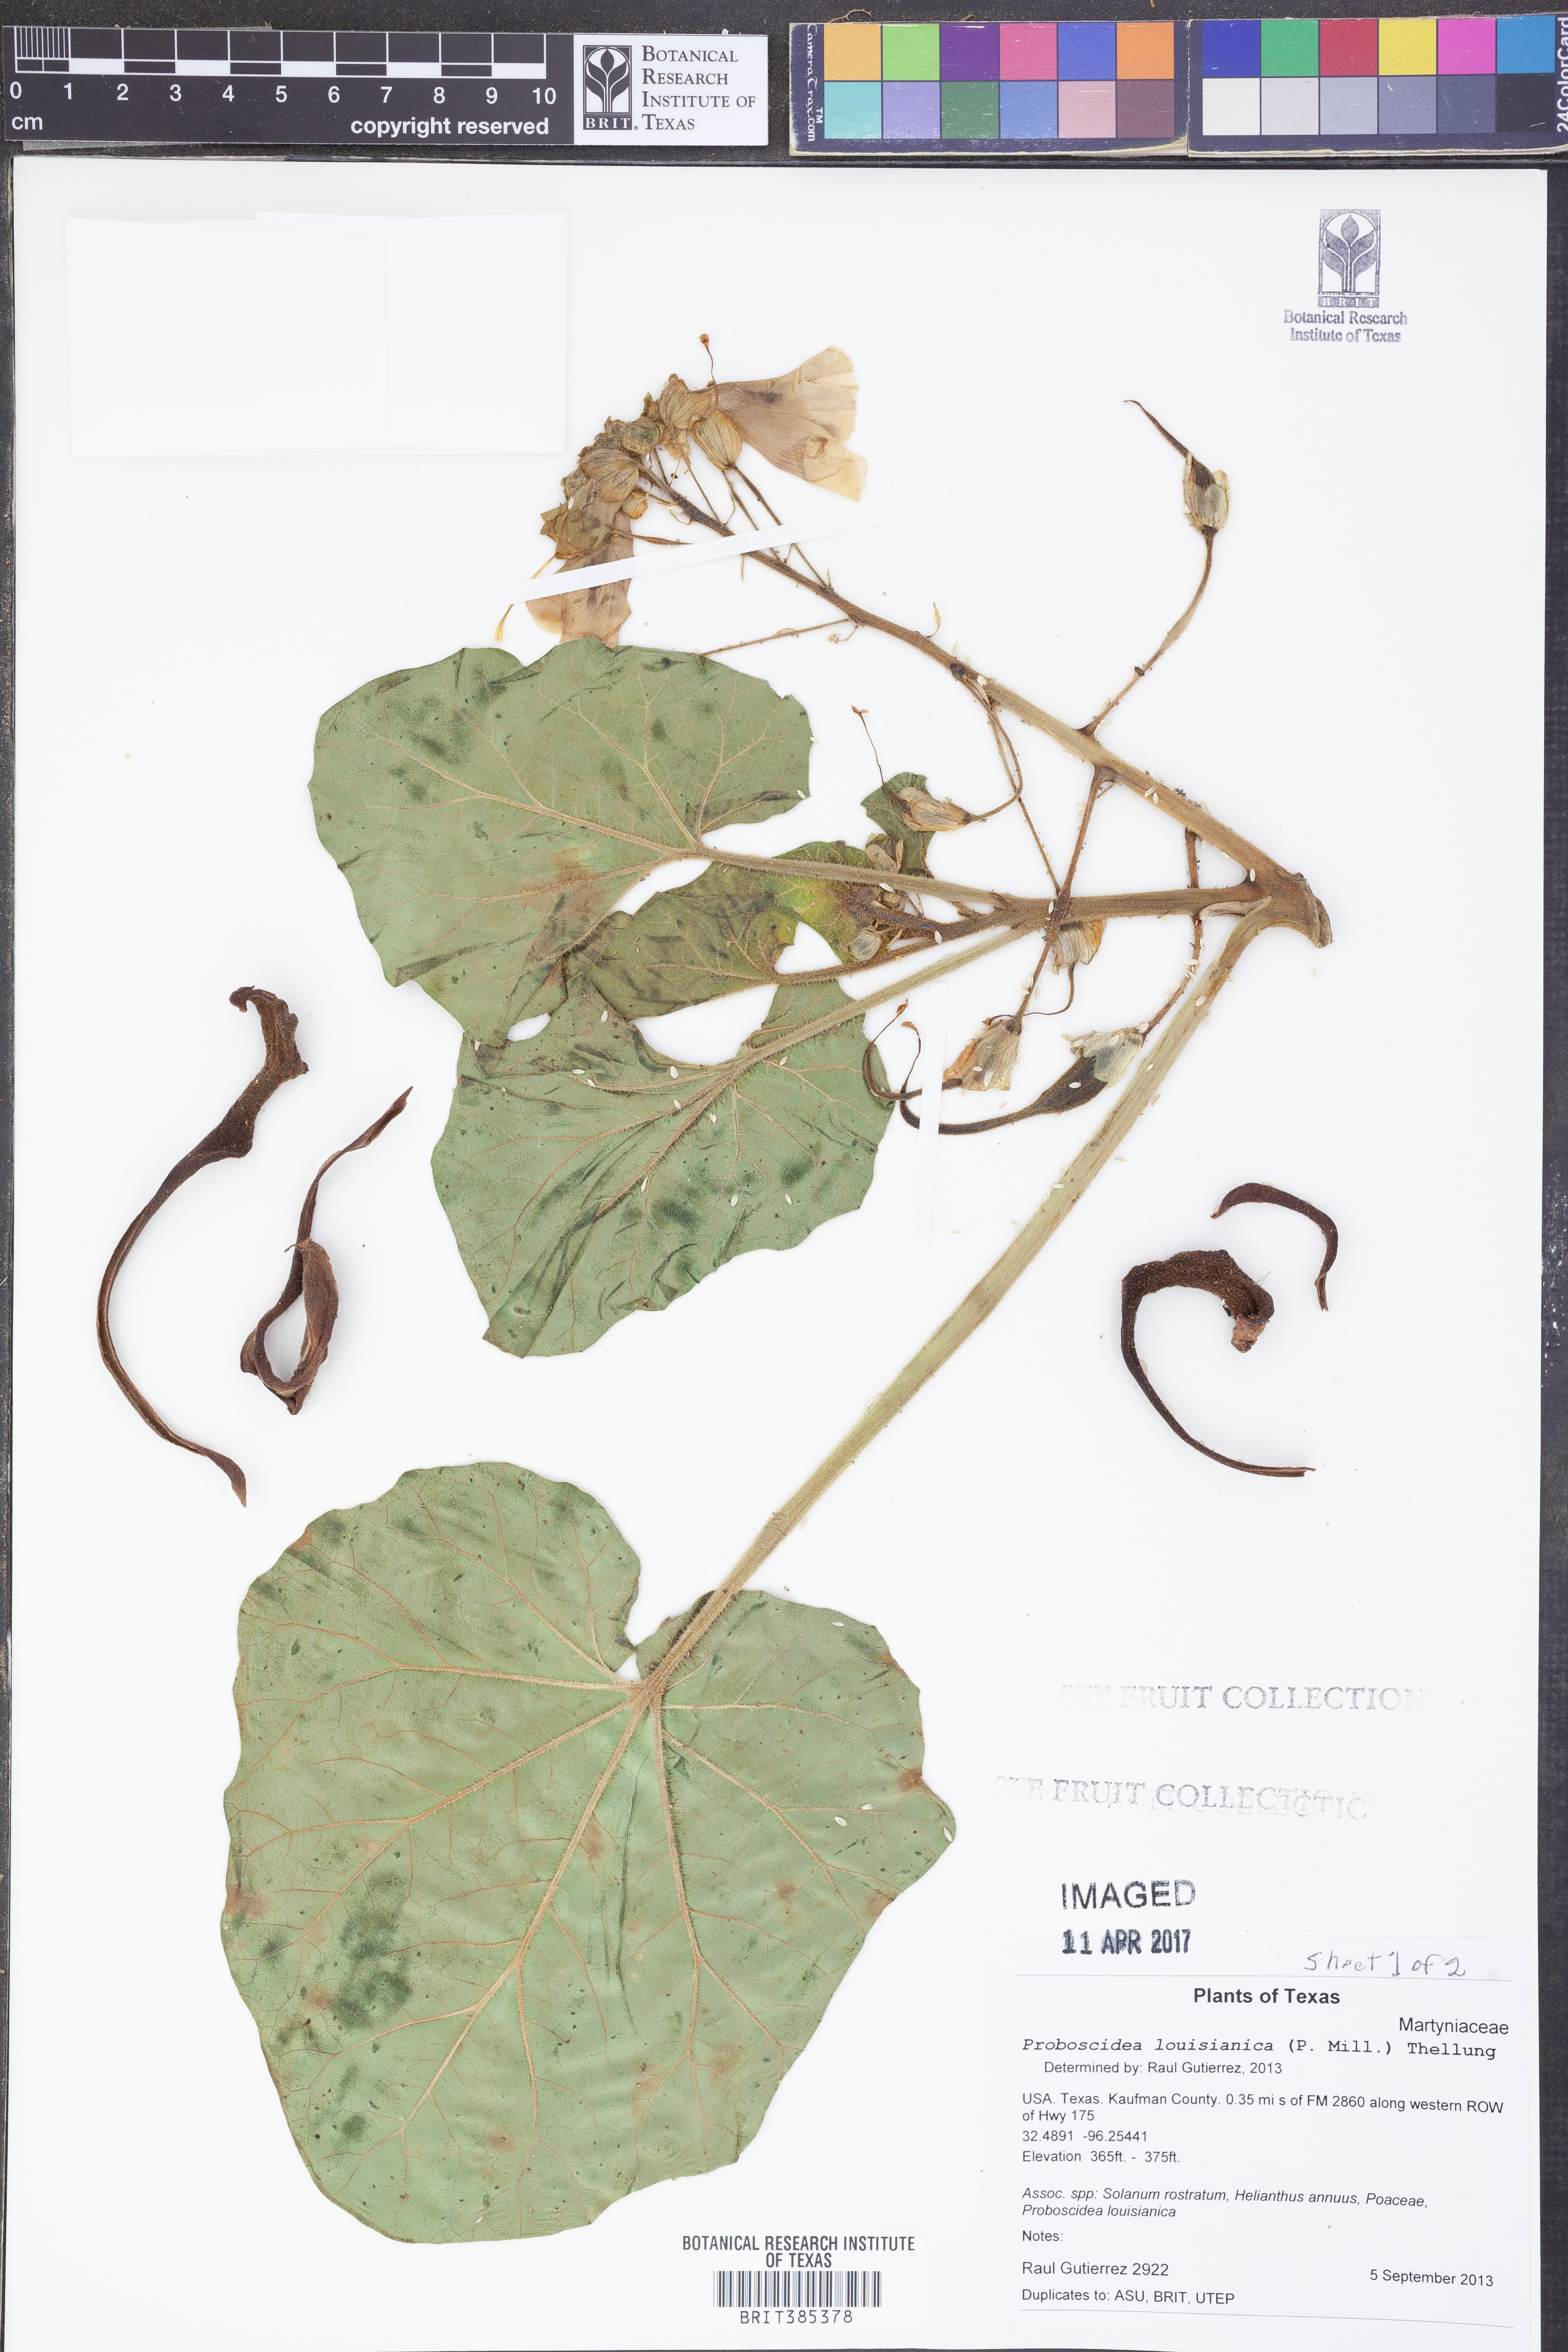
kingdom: Plantae
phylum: Tracheophyta
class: Magnoliopsida
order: Lamiales
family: Martyniaceae
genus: Proboscidea
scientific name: Proboscidea louisianica
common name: Elephant tusks
